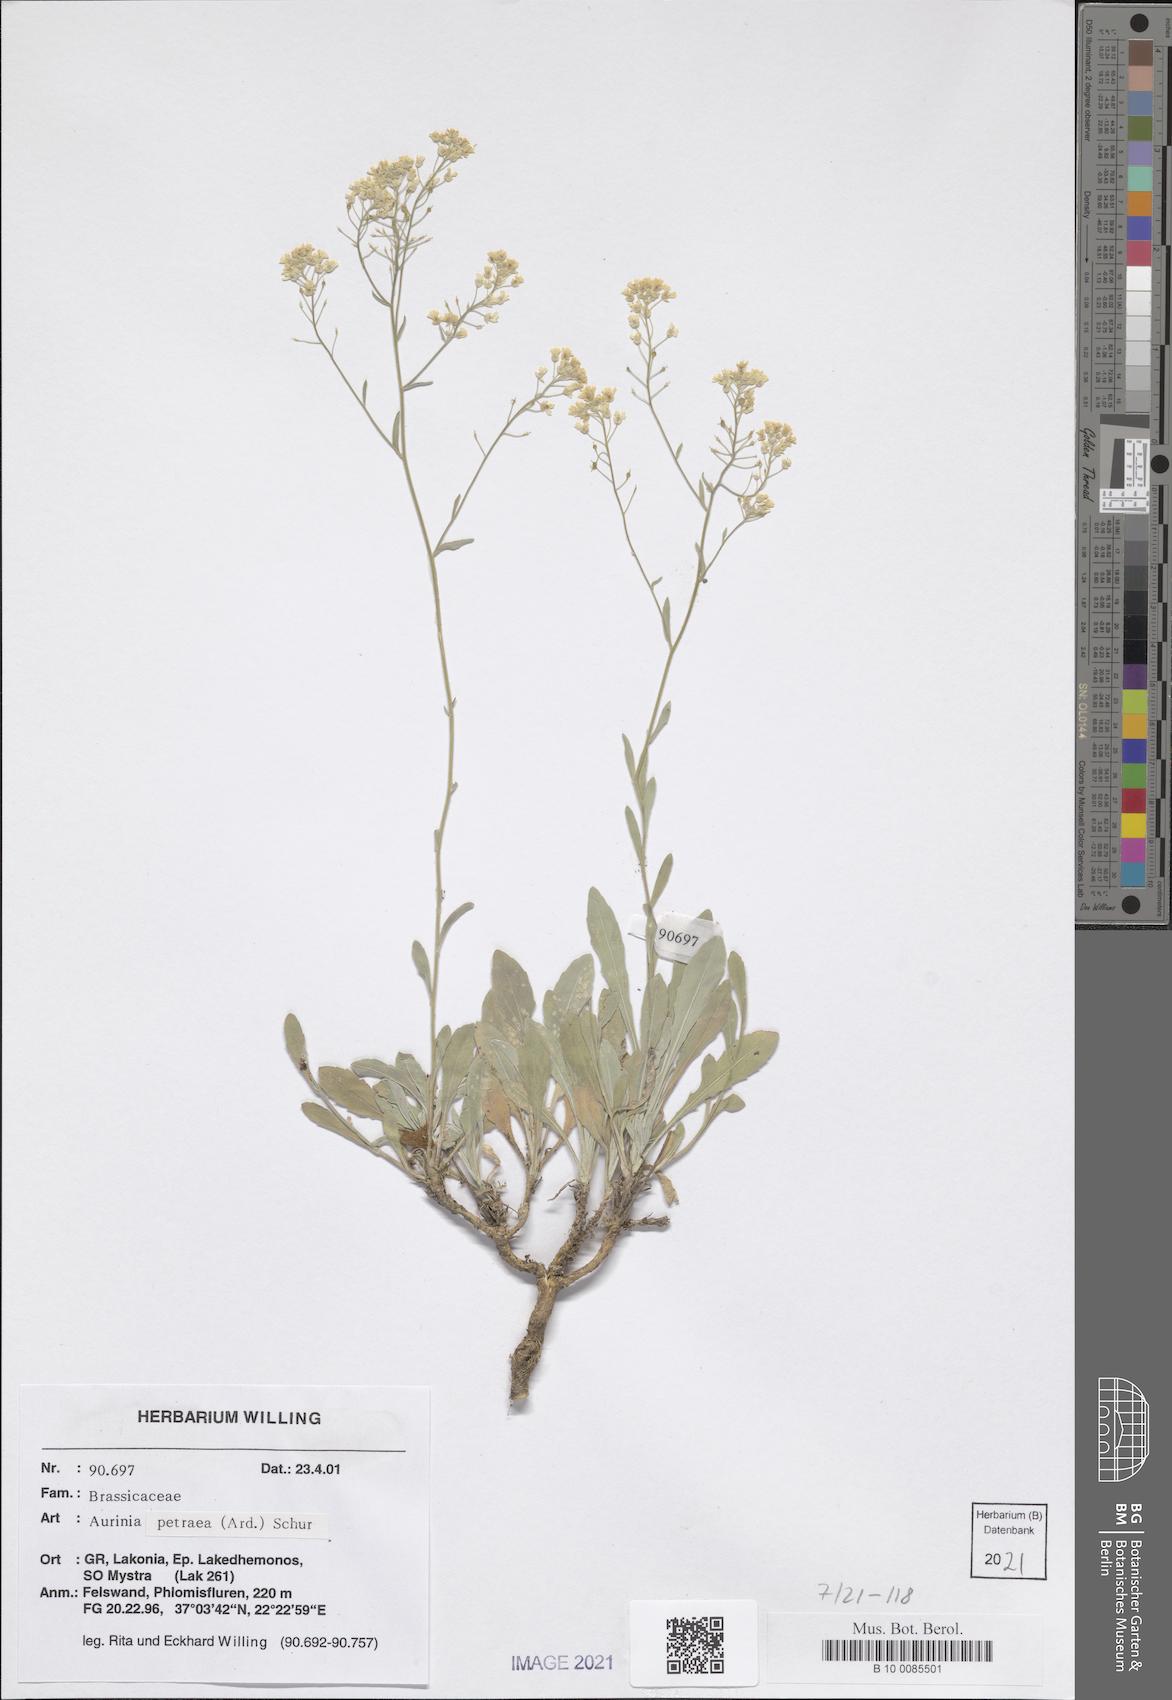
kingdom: Plantae
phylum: Tracheophyta
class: Magnoliopsida
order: Brassicales
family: Brassicaceae
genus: Aurinia
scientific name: Aurinia petraea
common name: Goldentuft
